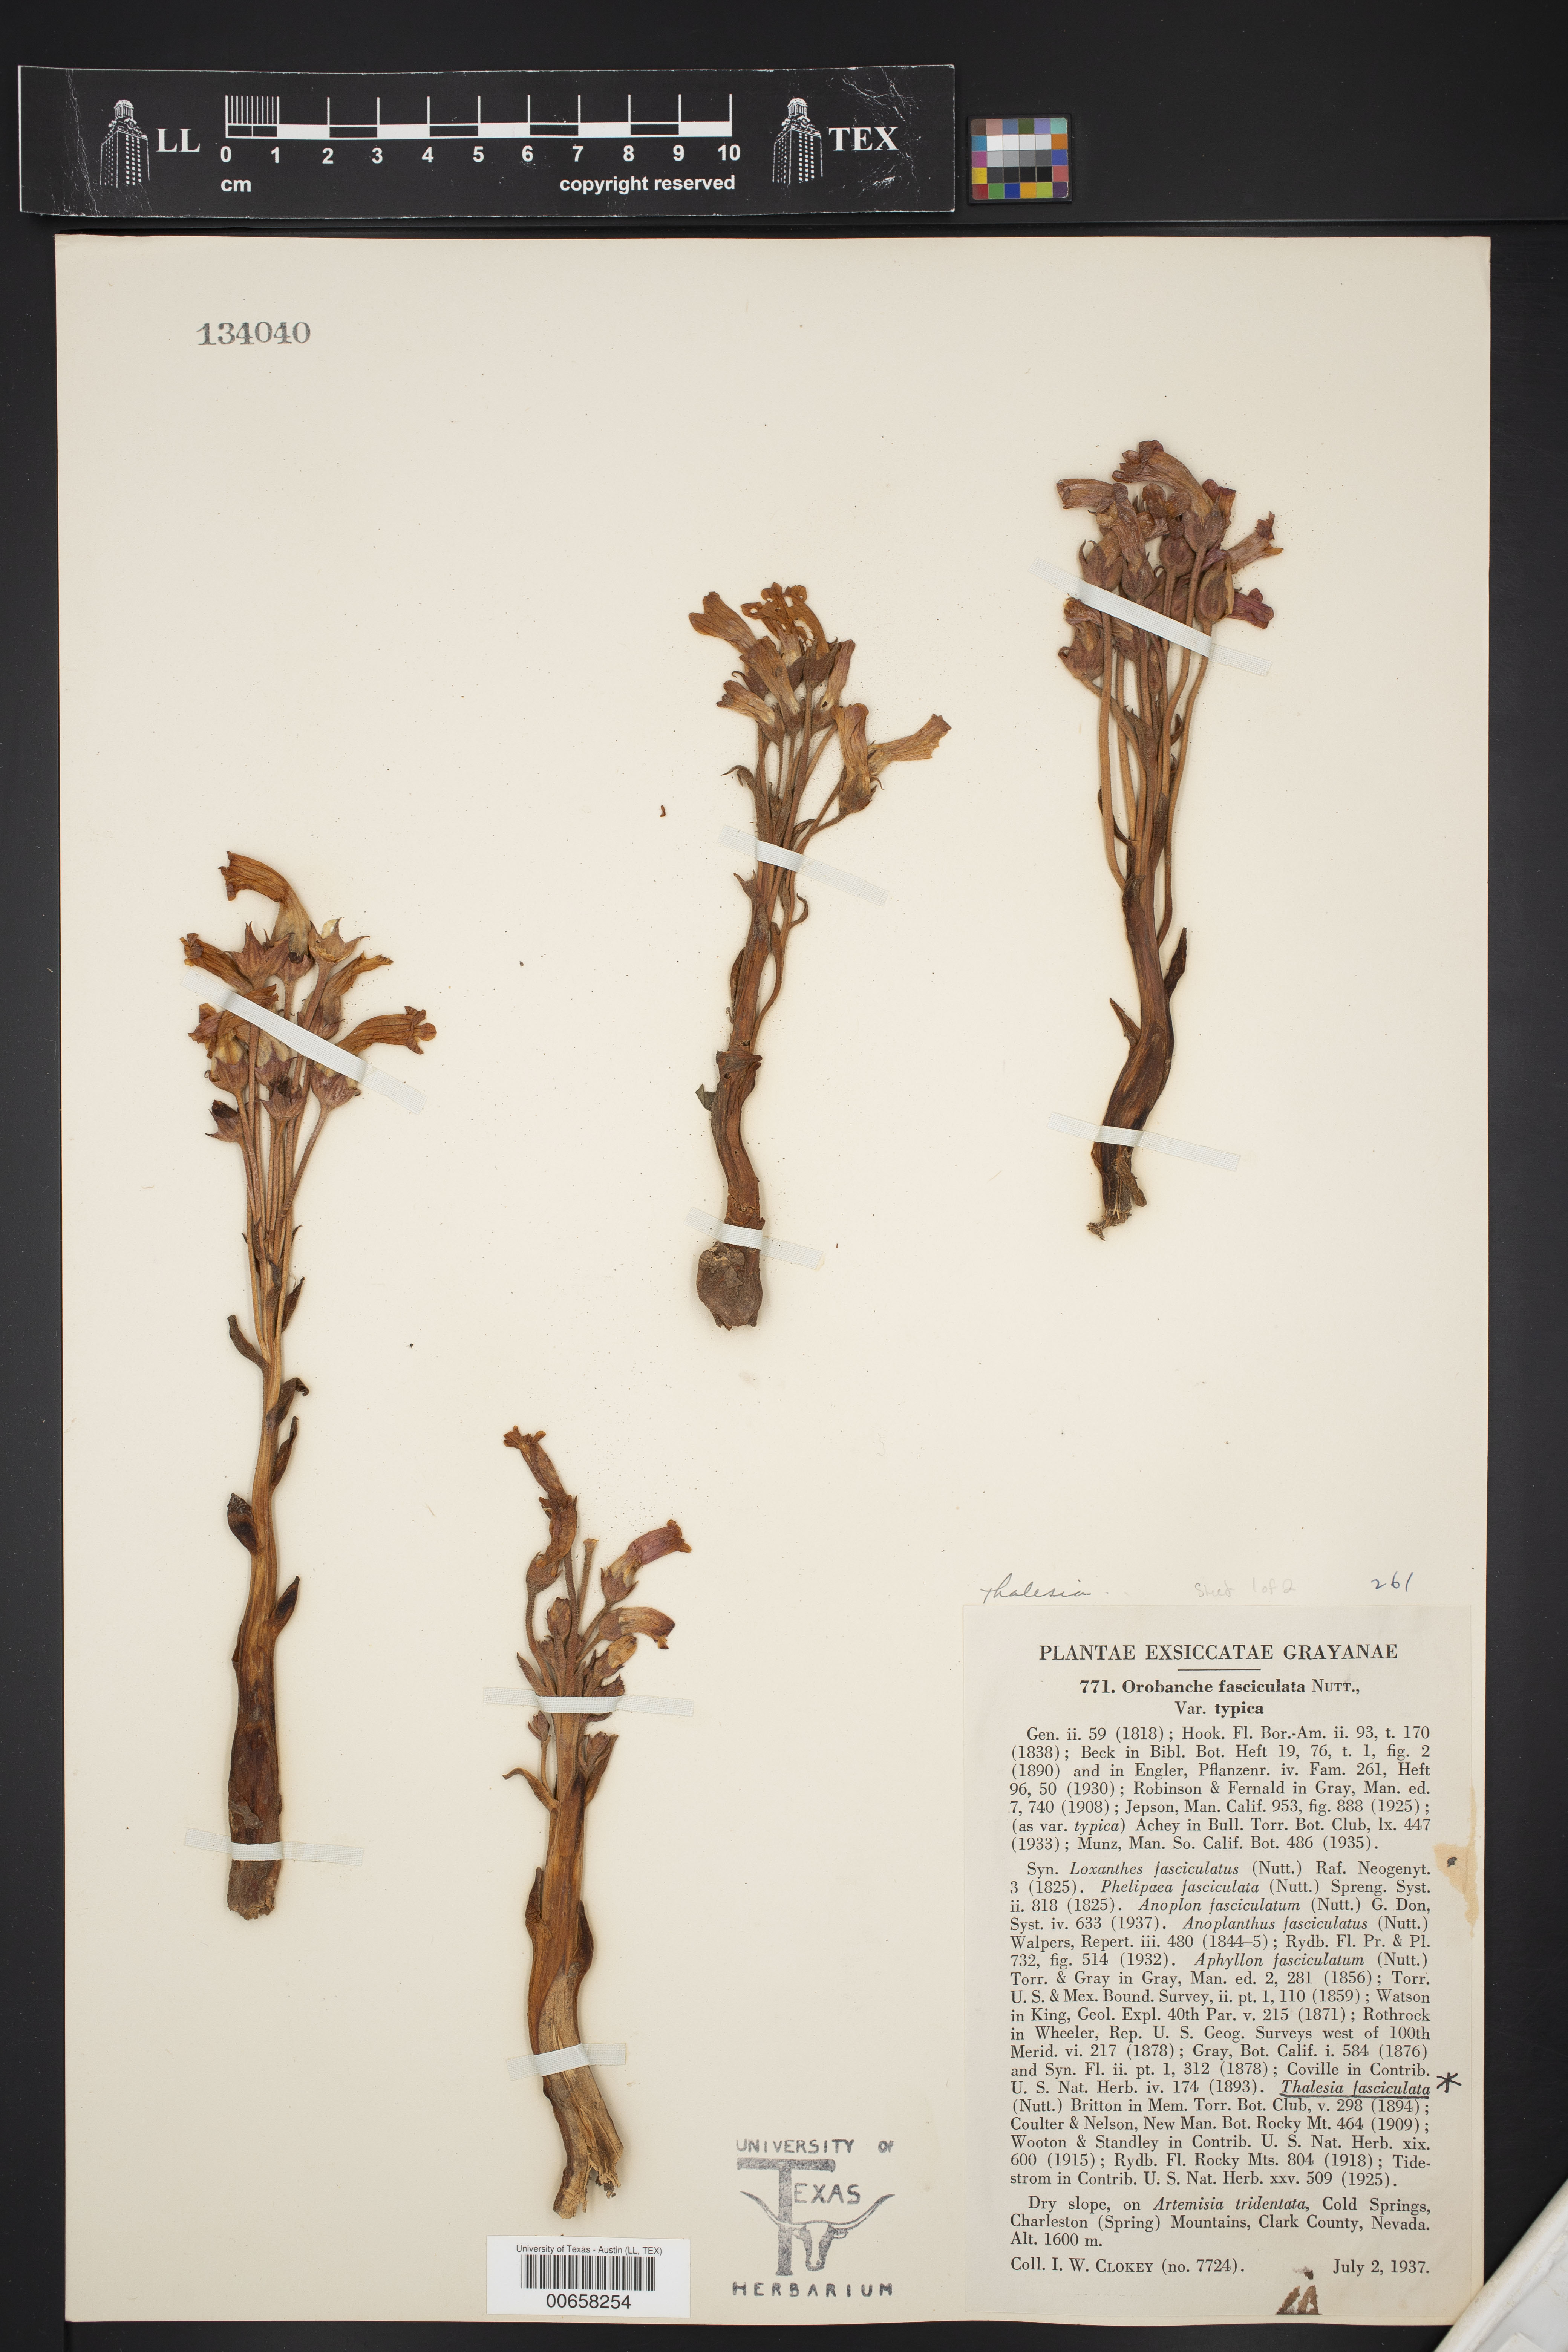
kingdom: Plantae
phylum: Tracheophyta
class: Magnoliopsida
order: Lamiales
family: Scrophulariaceae
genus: Thalesia
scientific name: Thalesia
